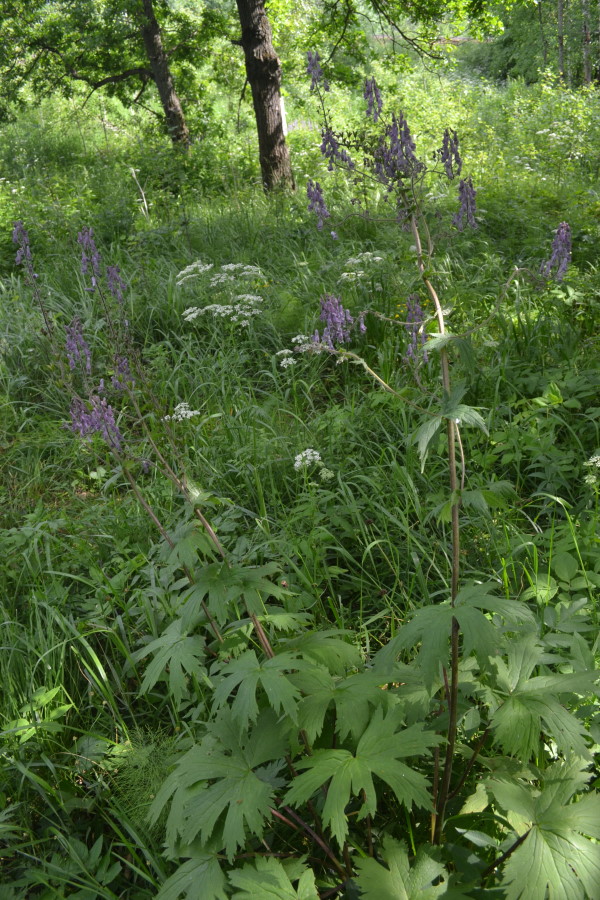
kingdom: Plantae
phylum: Tracheophyta
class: Magnoliopsida
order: Ranunculales
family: Ranunculaceae
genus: Aconitum
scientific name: Aconitum septentrionale
